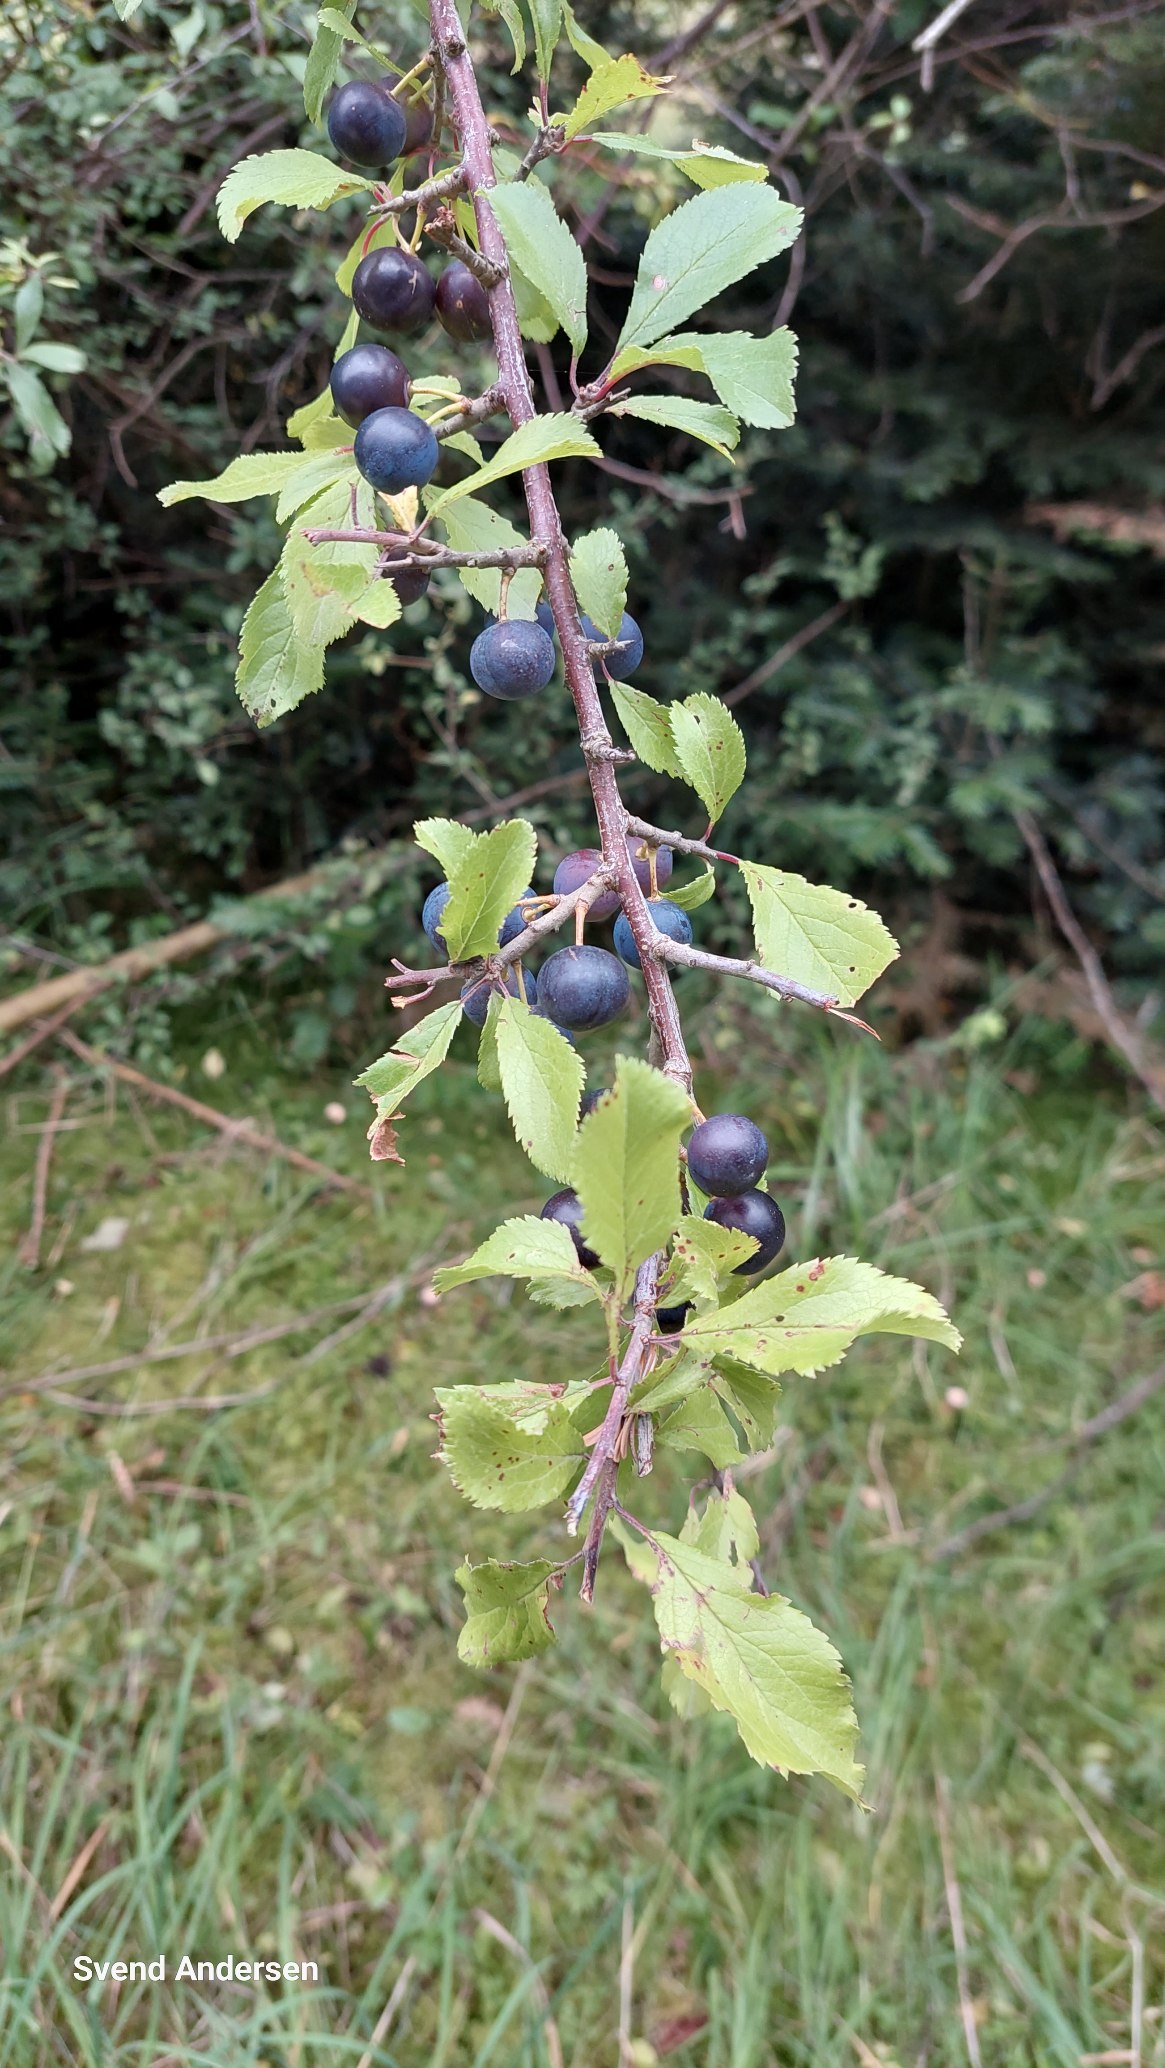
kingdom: Plantae
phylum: Tracheophyta
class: Magnoliopsida
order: Rosales
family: Rosaceae
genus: Prunus
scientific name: Prunus spinosa
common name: Slåen
